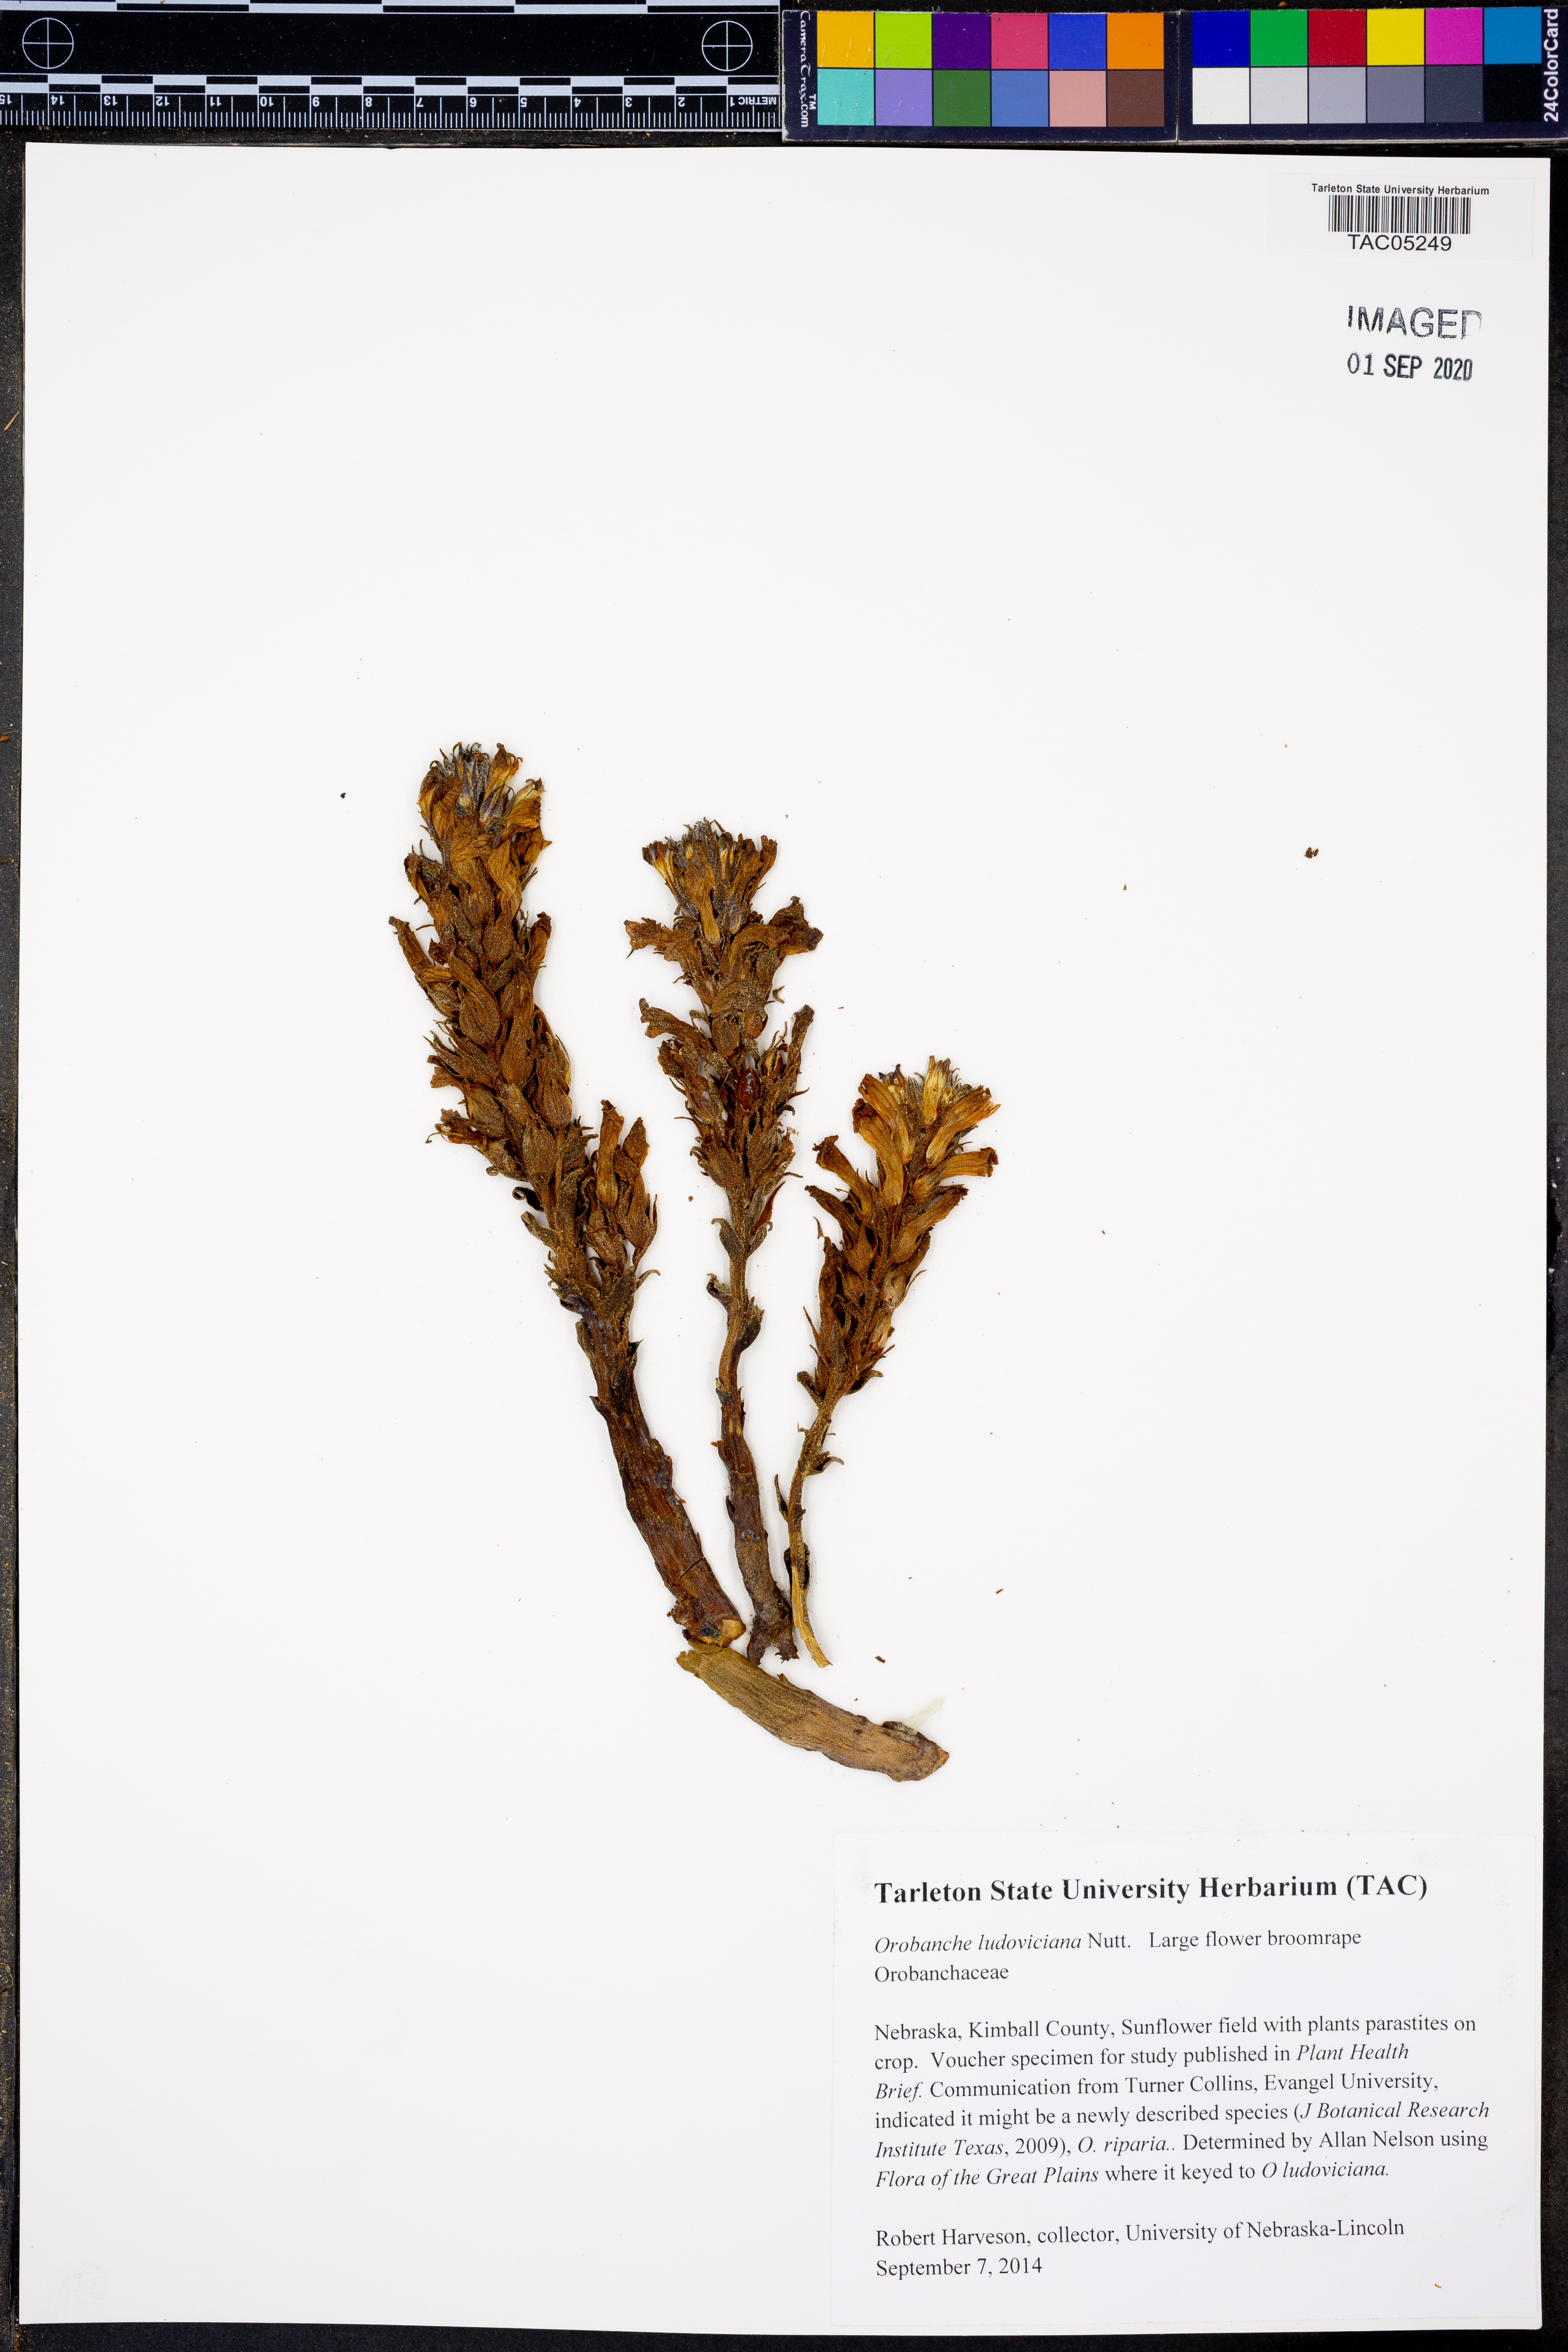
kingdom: Plantae
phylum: Tracheophyta
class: Magnoliopsida
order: Lamiales
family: Orobanchaceae
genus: Aphyllon
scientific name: Aphyllon ludovicianum
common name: Louisiana broomrape
